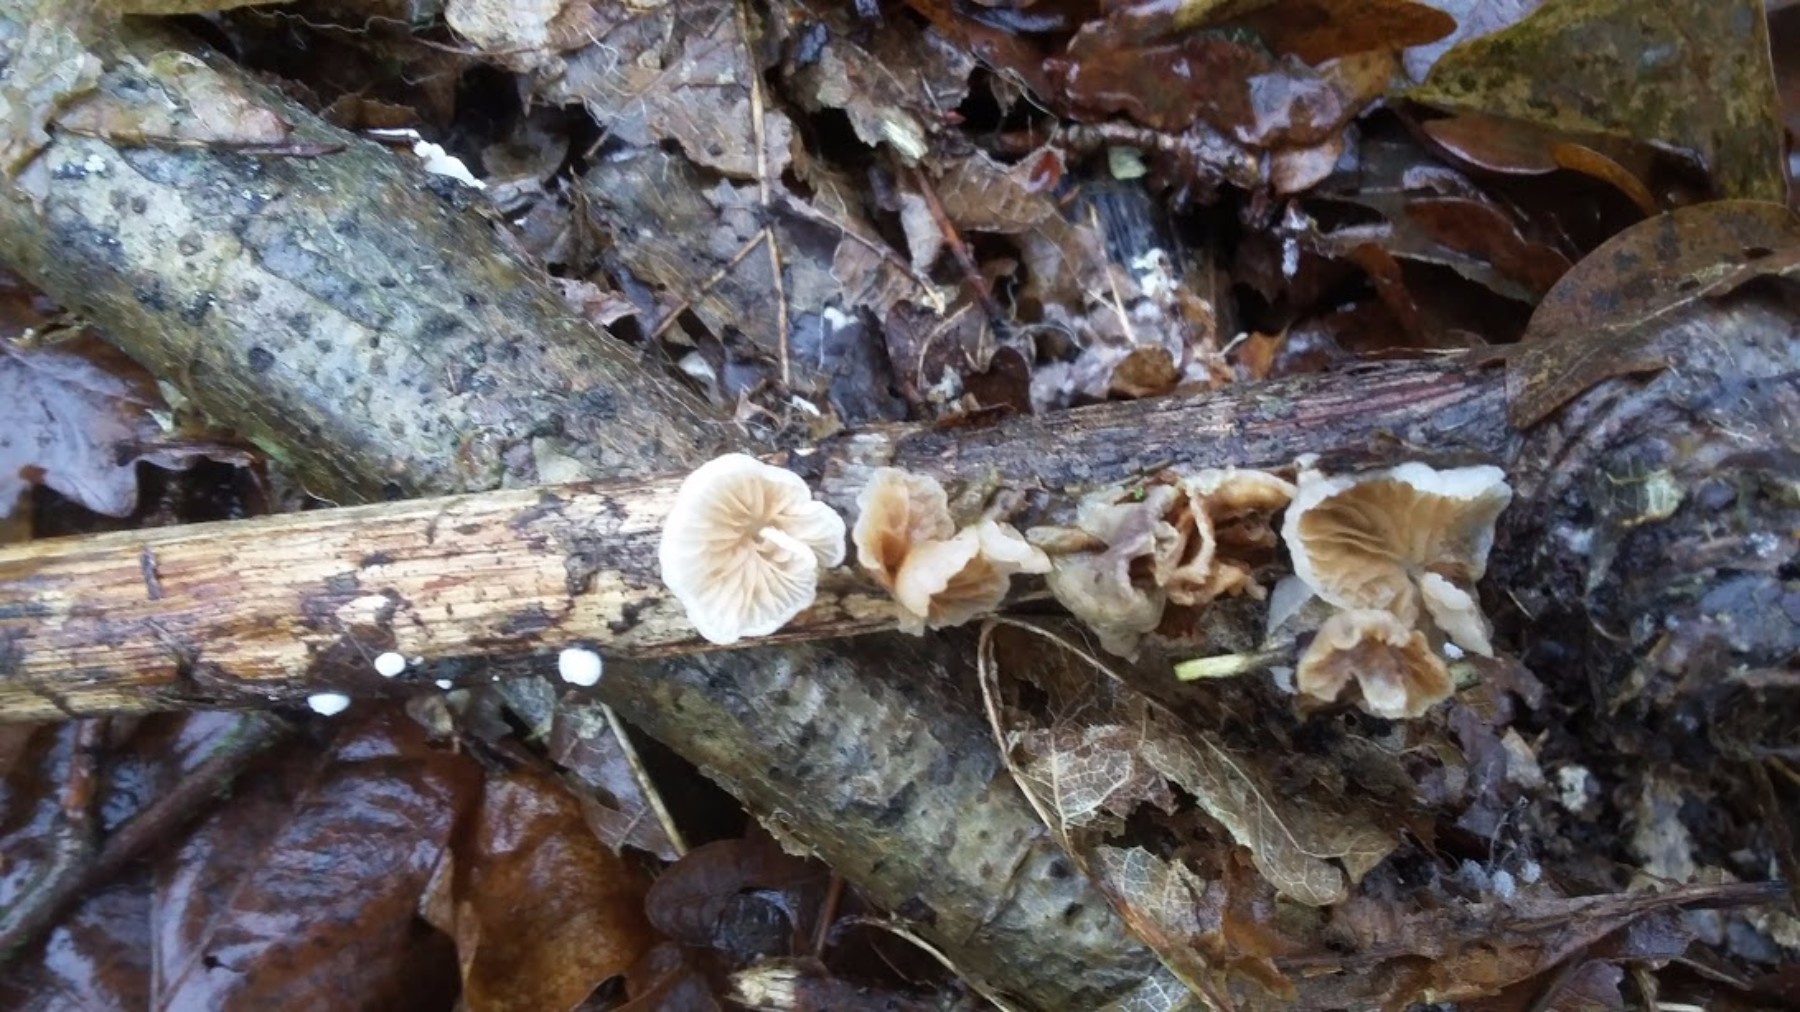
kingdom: Fungi
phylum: Basidiomycota
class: Agaricomycetes
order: Agaricales
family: Crepidotaceae
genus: Crepidotus
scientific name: Crepidotus
